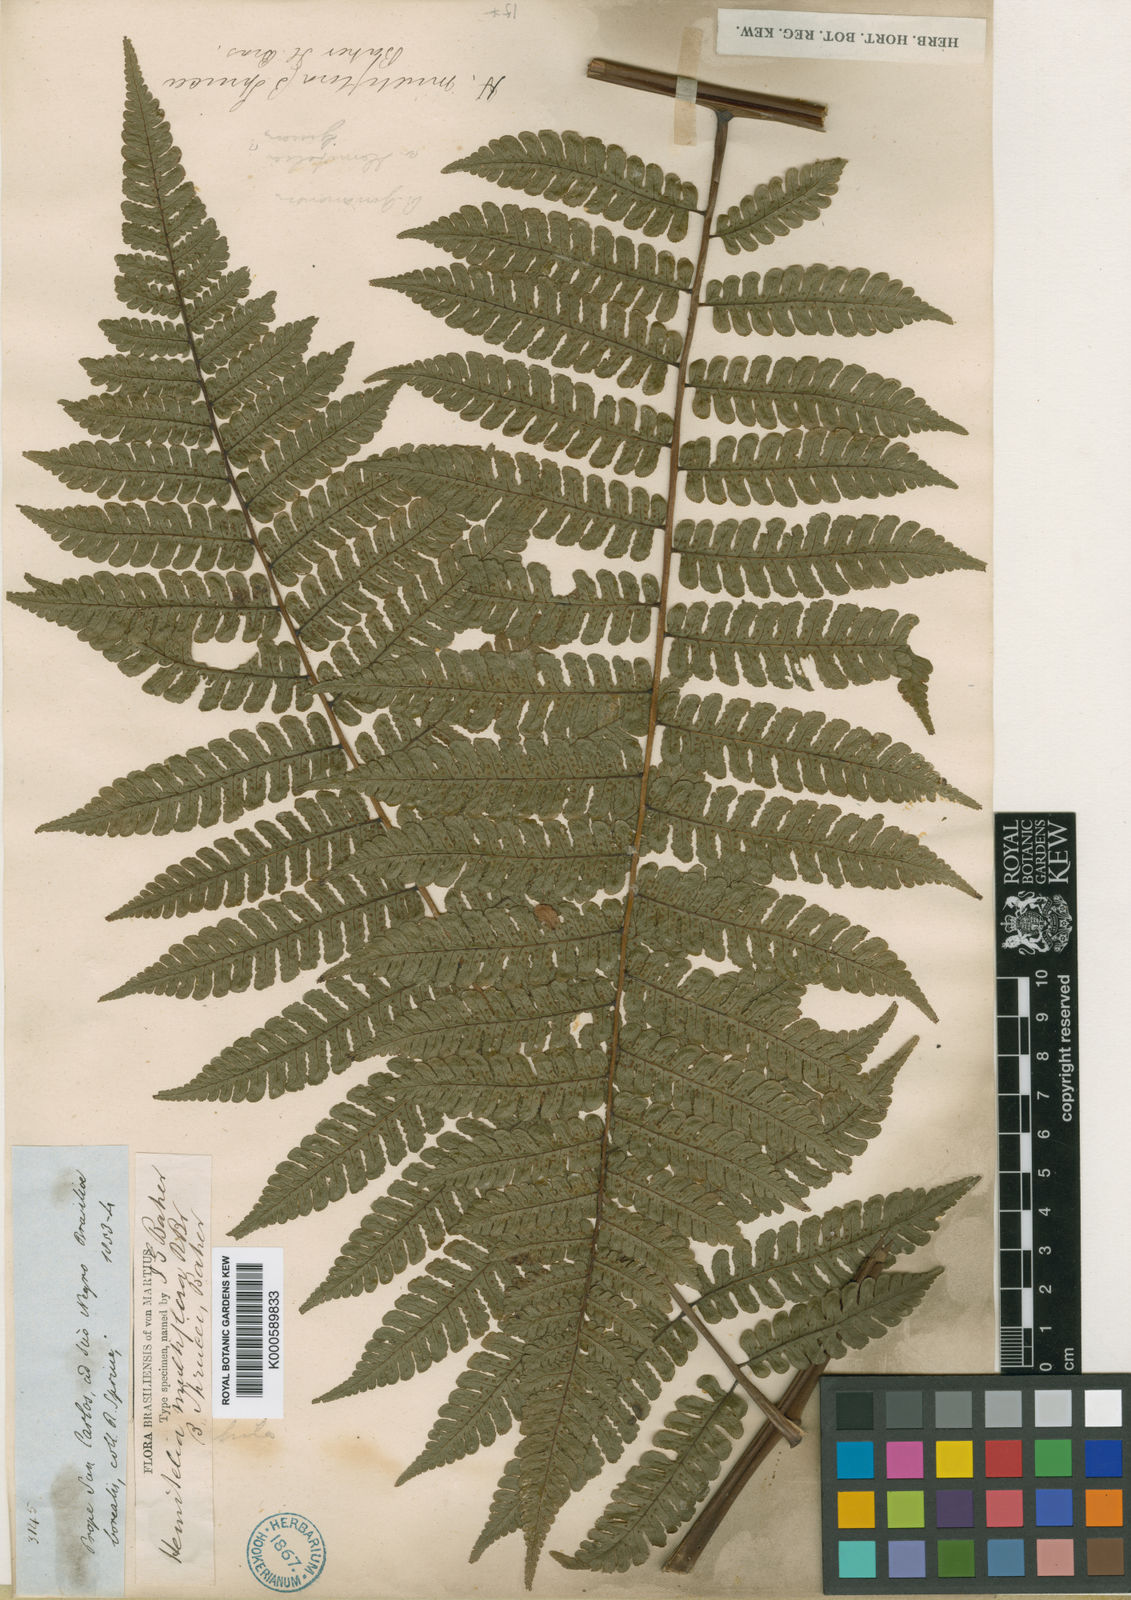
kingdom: Plantae
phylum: Tracheophyta
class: Polypodiopsida
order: Cyatheales
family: Cyatheaceae
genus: Cyathea
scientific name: Cyathea cyatheoides
